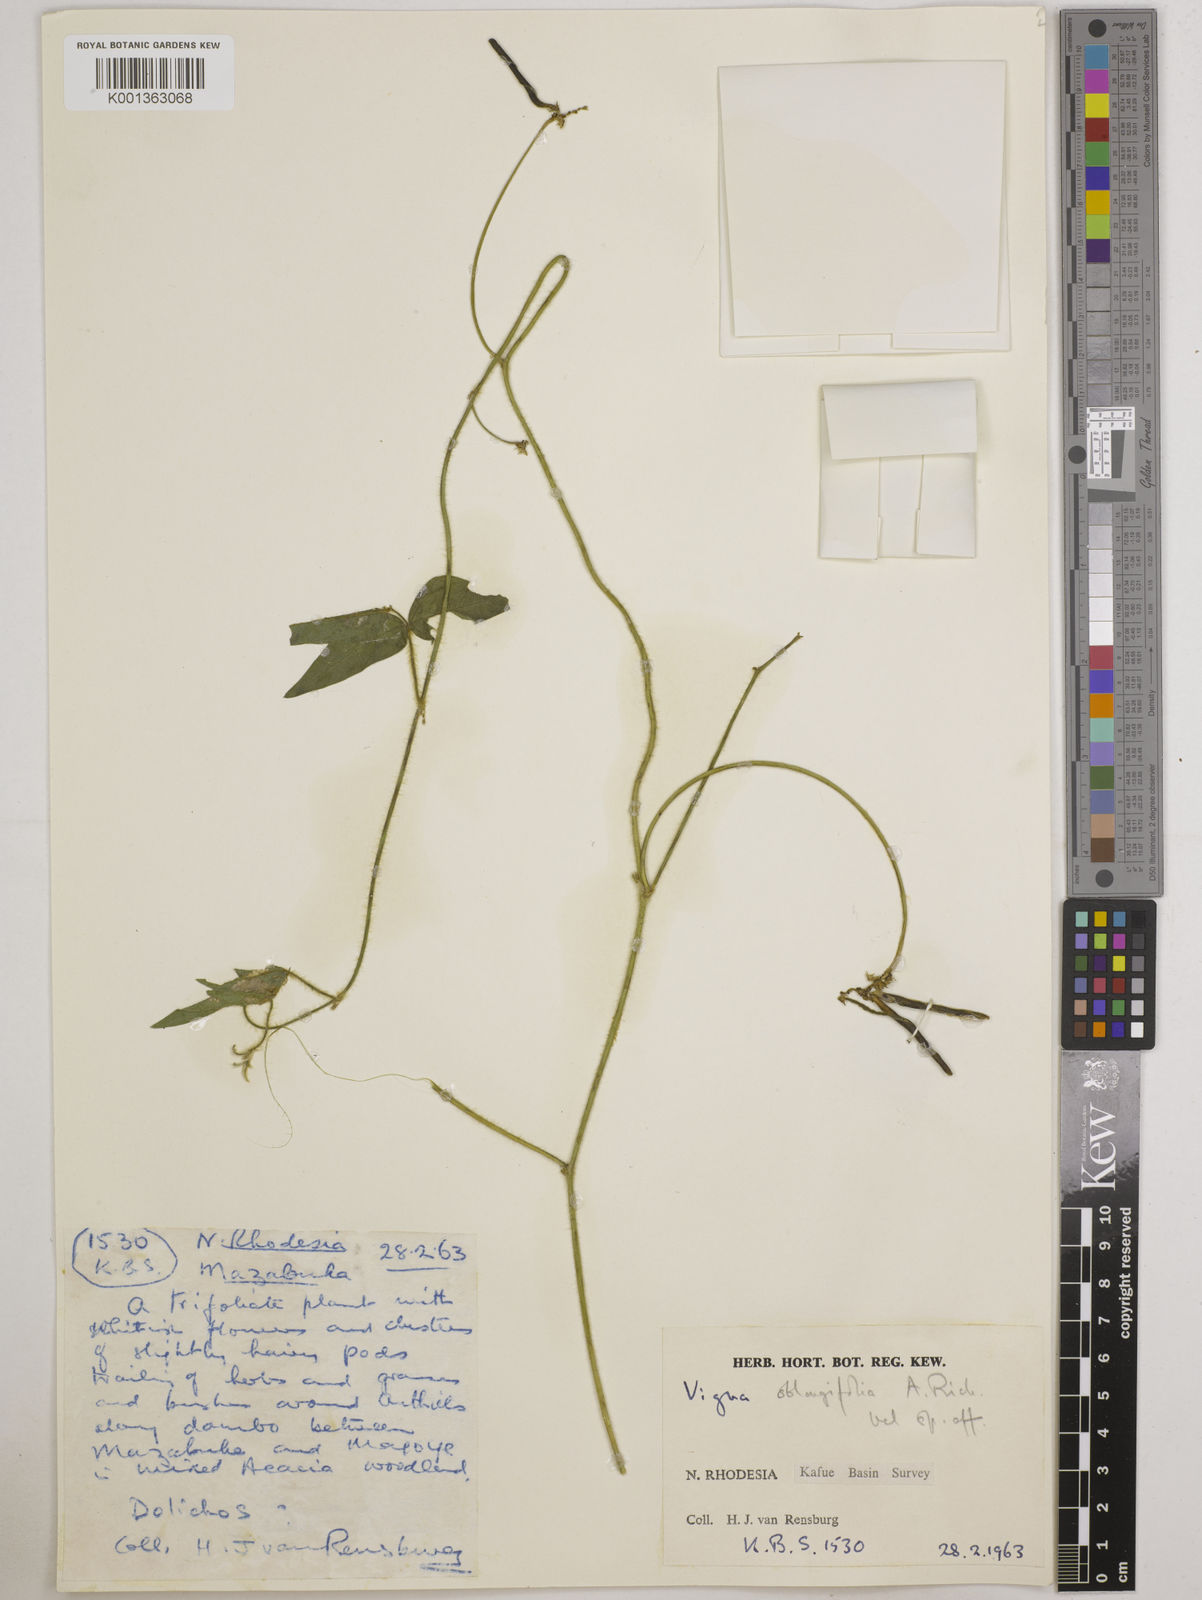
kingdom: Plantae
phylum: Tracheophyta
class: Magnoliopsida
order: Fabales
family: Fabaceae
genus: Vigna
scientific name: Vigna
